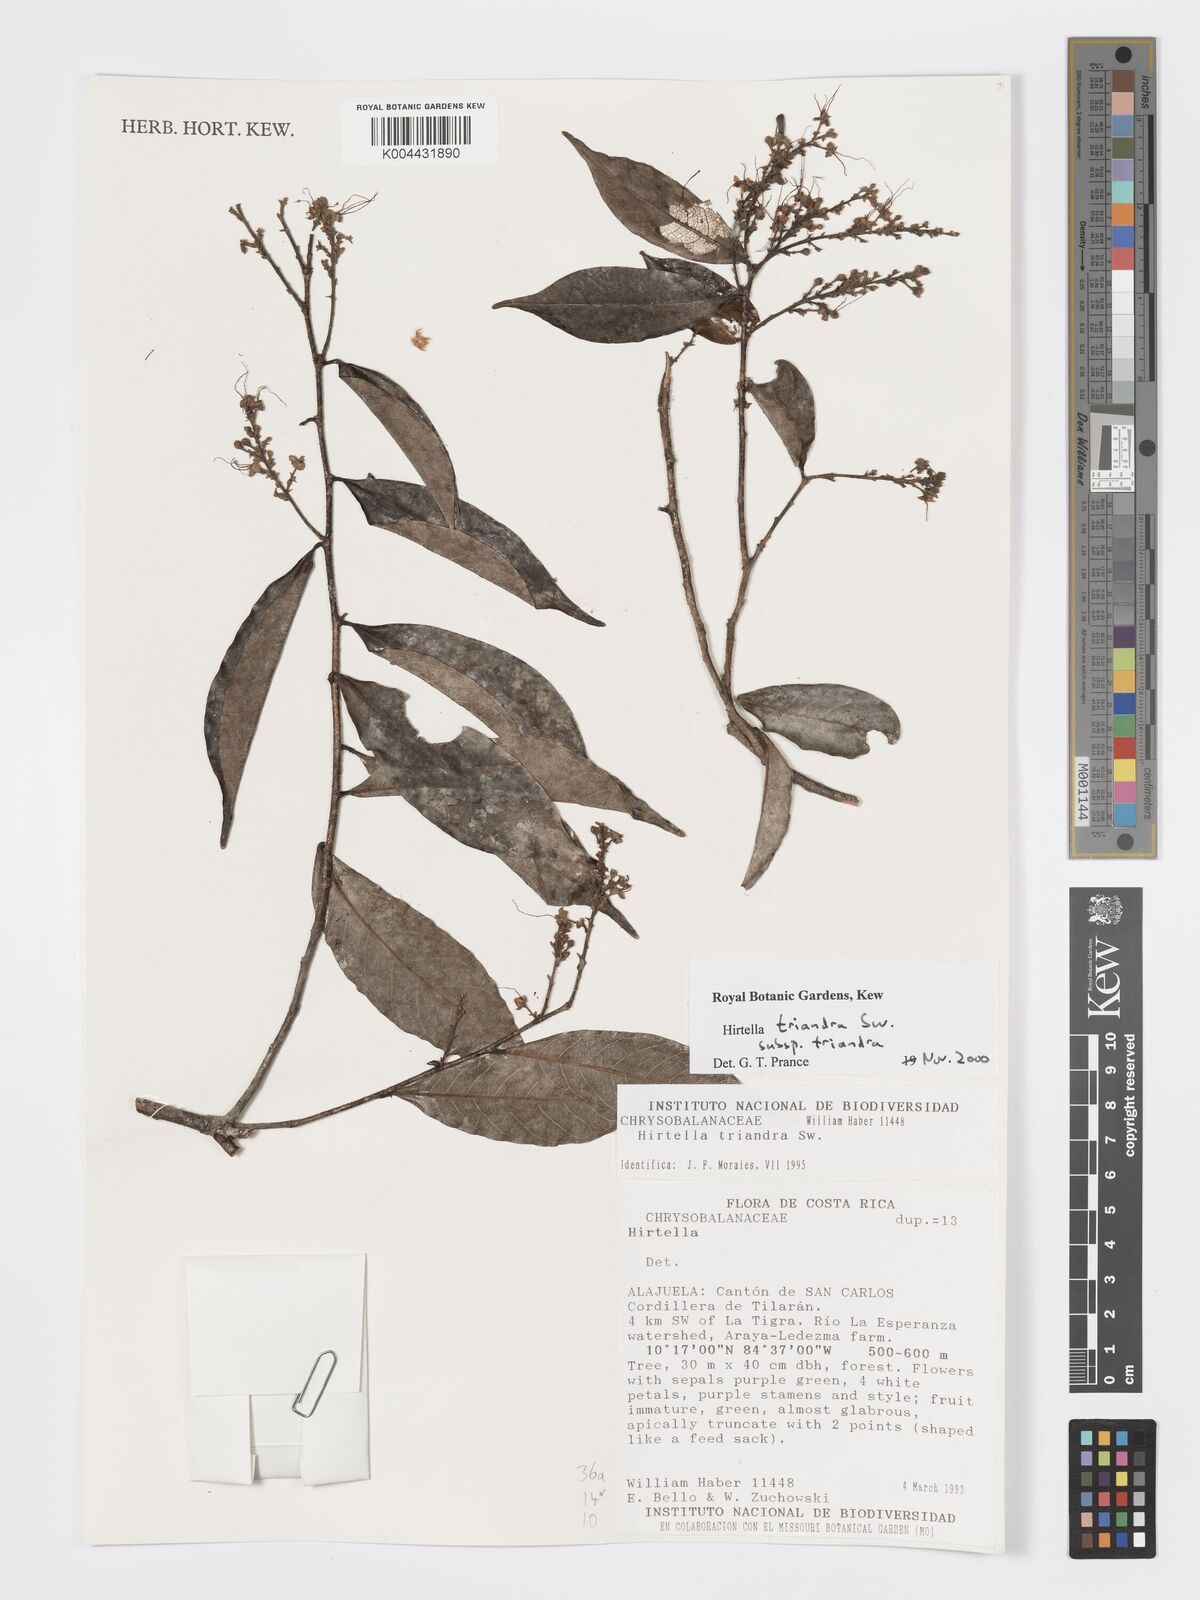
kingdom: Plantae
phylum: Tracheophyta
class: Magnoliopsida
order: Malpighiales
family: Chrysobalanaceae
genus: Hirtella
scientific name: Hirtella triandra
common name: Hairy plum
